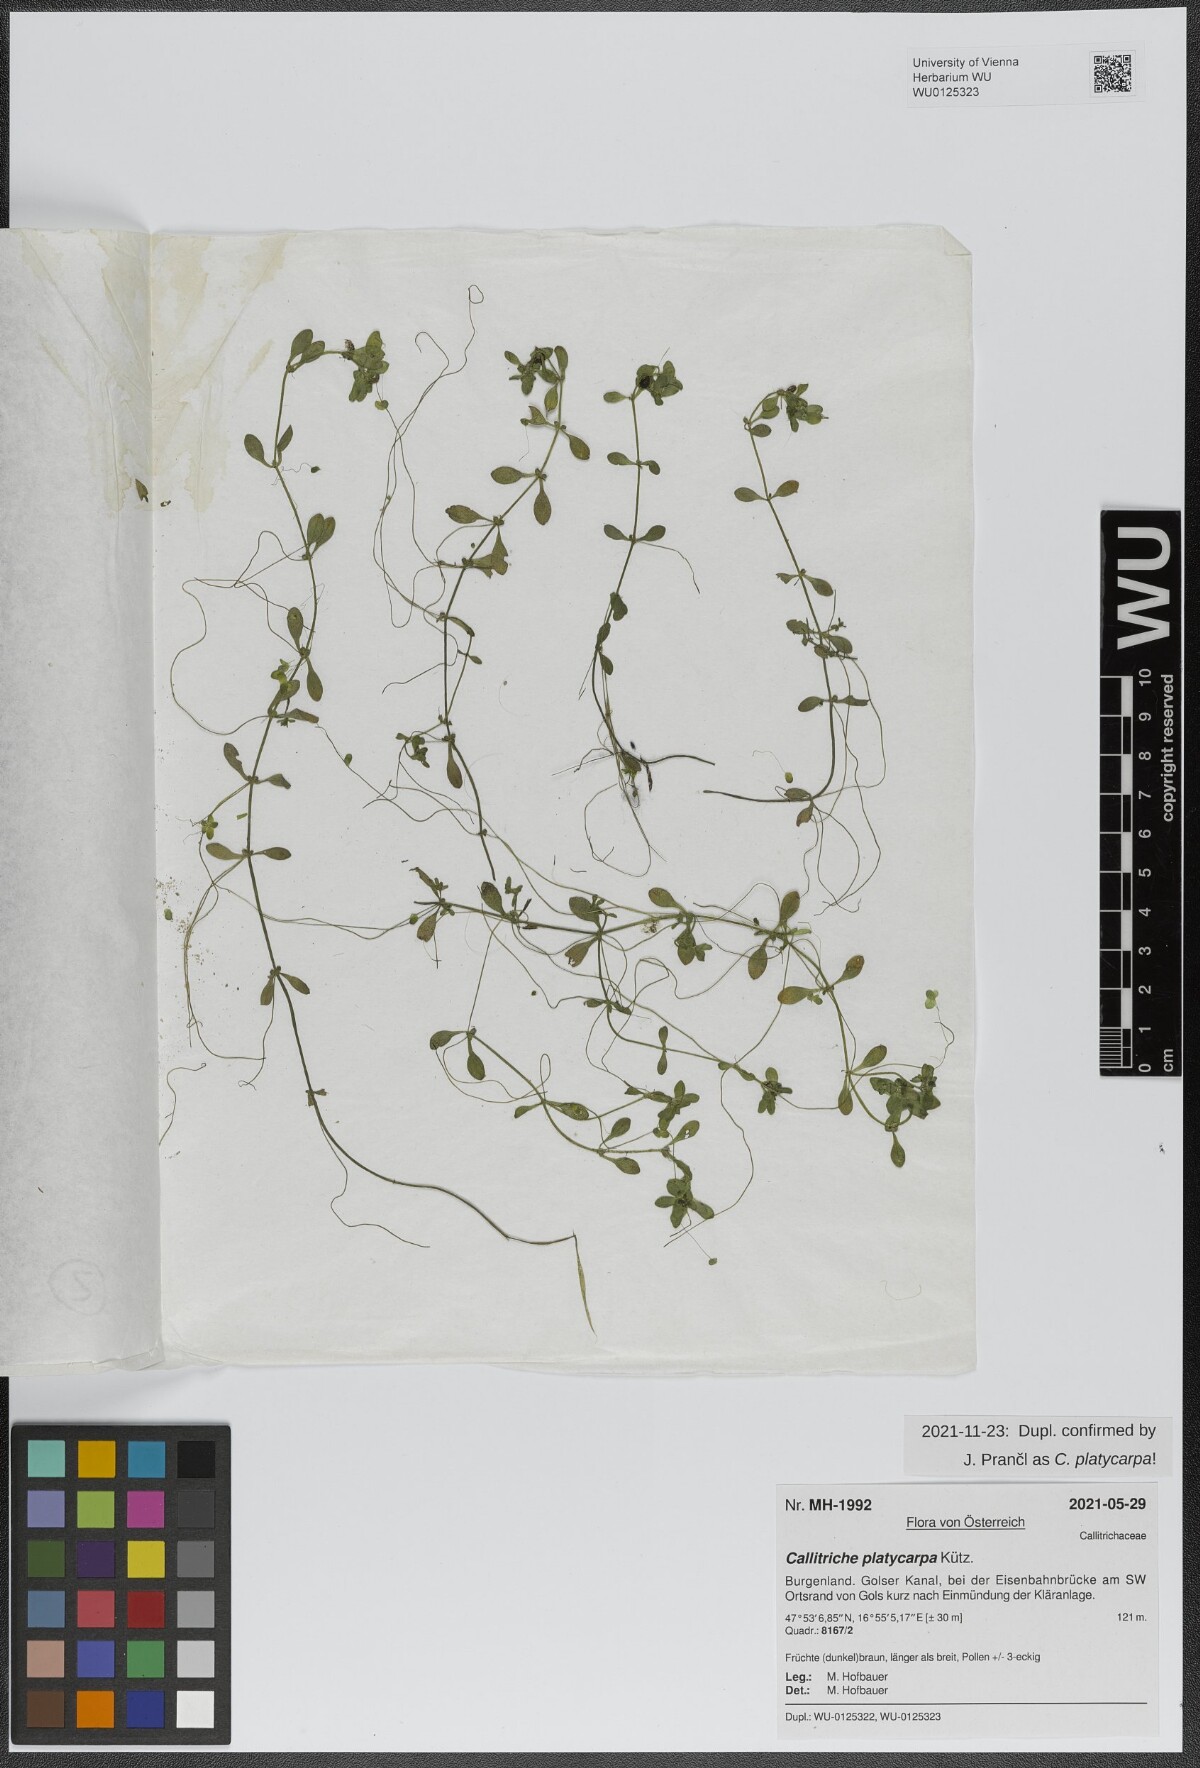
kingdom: Plantae
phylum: Tracheophyta
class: Magnoliopsida
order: Lamiales
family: Plantaginaceae
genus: Callitriche
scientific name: Callitriche platycarpa
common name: Various-leaved water-starwort
